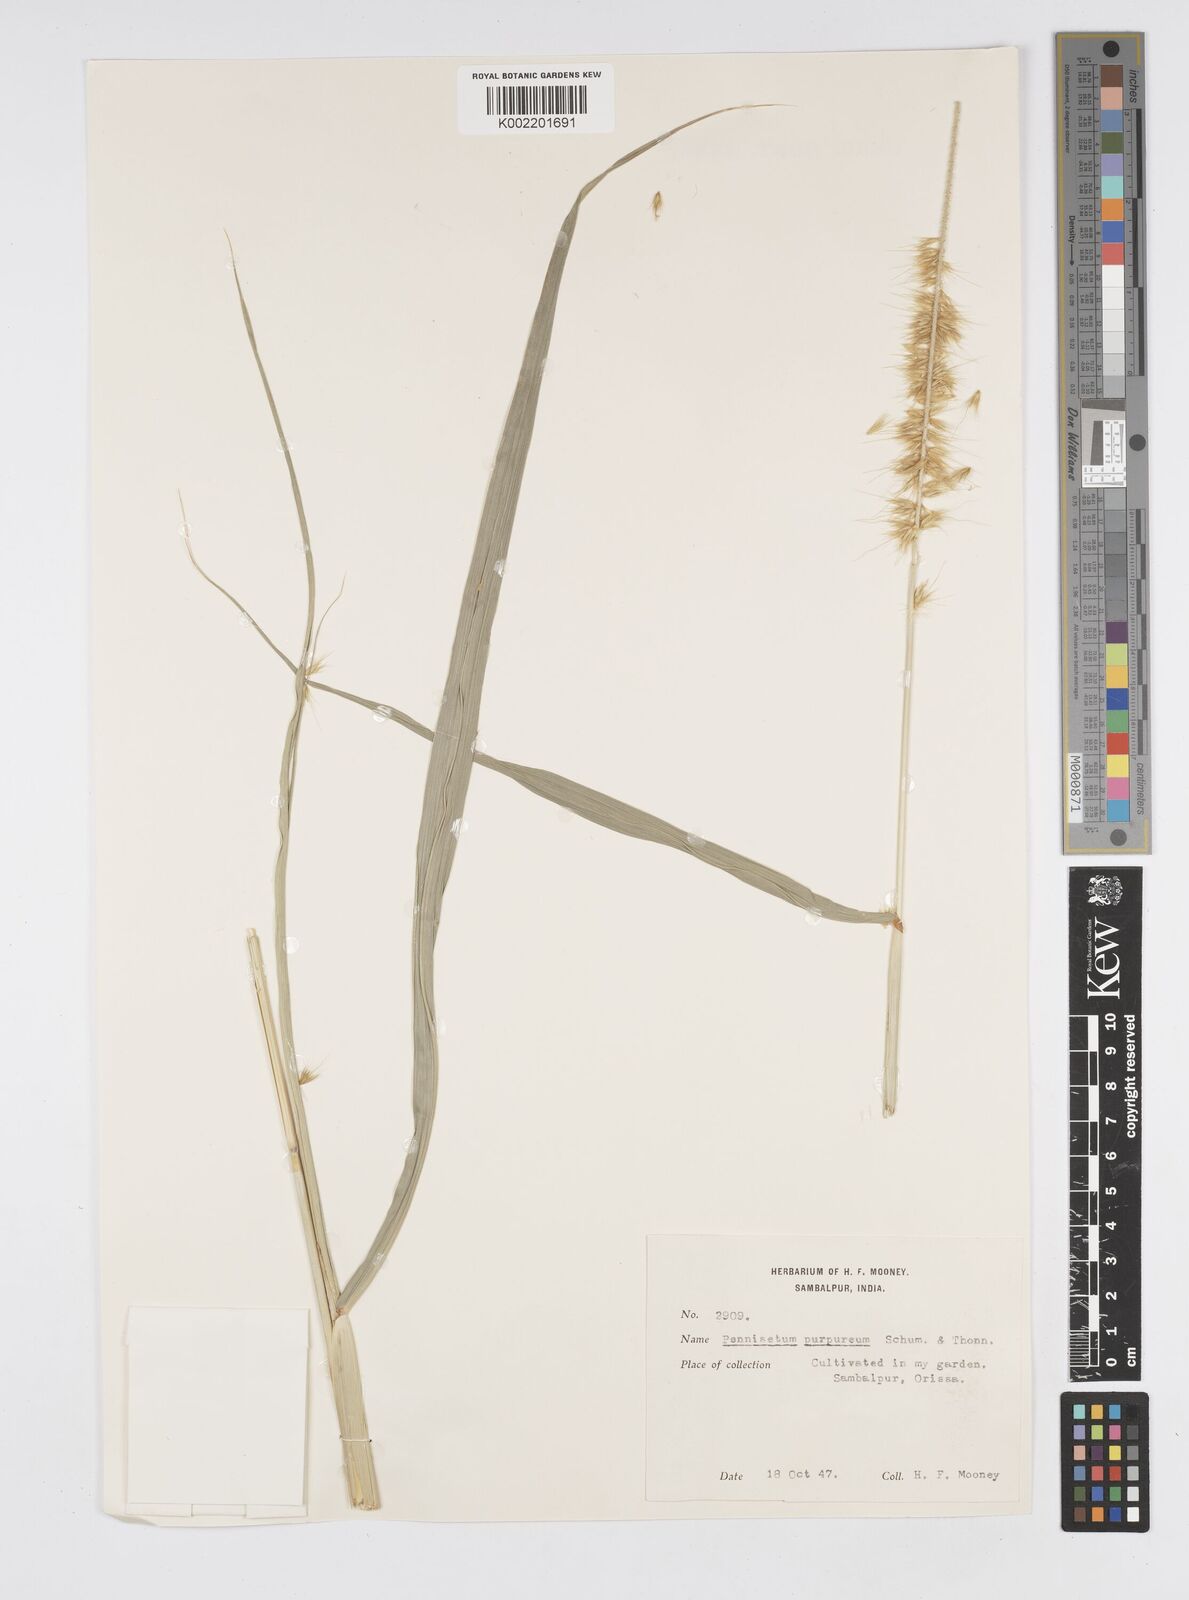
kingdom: Plantae
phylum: Tracheophyta
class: Liliopsida
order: Poales
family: Poaceae
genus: Cenchrus
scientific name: Cenchrus purpureus
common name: Elephant grass
